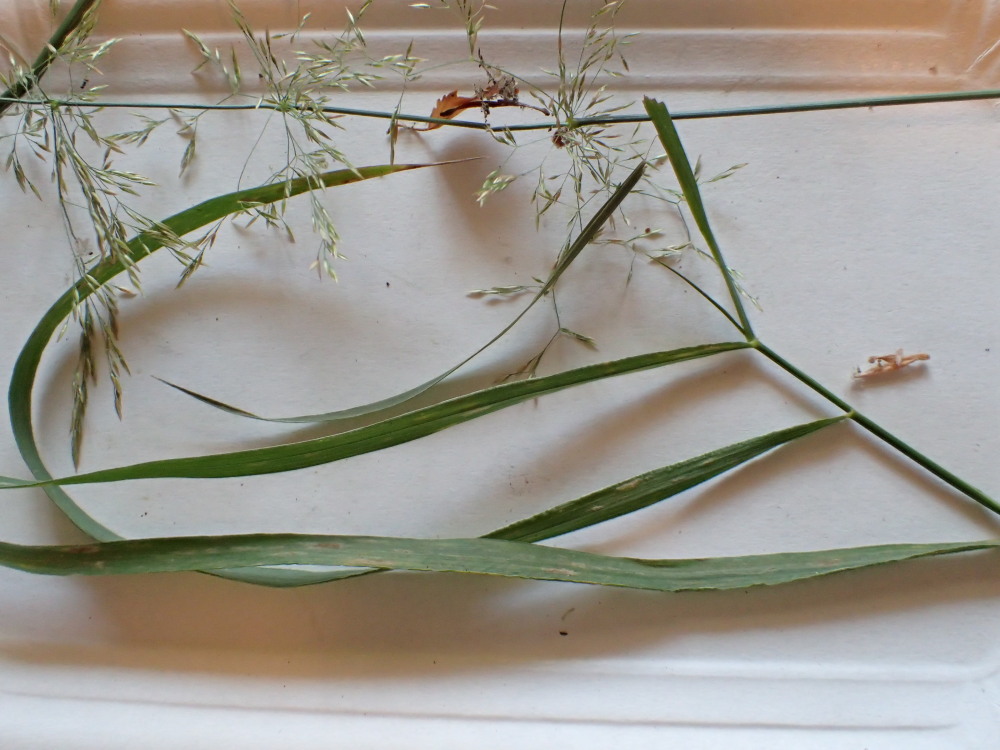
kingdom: Fungi
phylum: Ascomycota
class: Leotiomycetes
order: Helotiales
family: Erysiphaceae
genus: Blumeria
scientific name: Blumeria graminis
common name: græs-meldug
